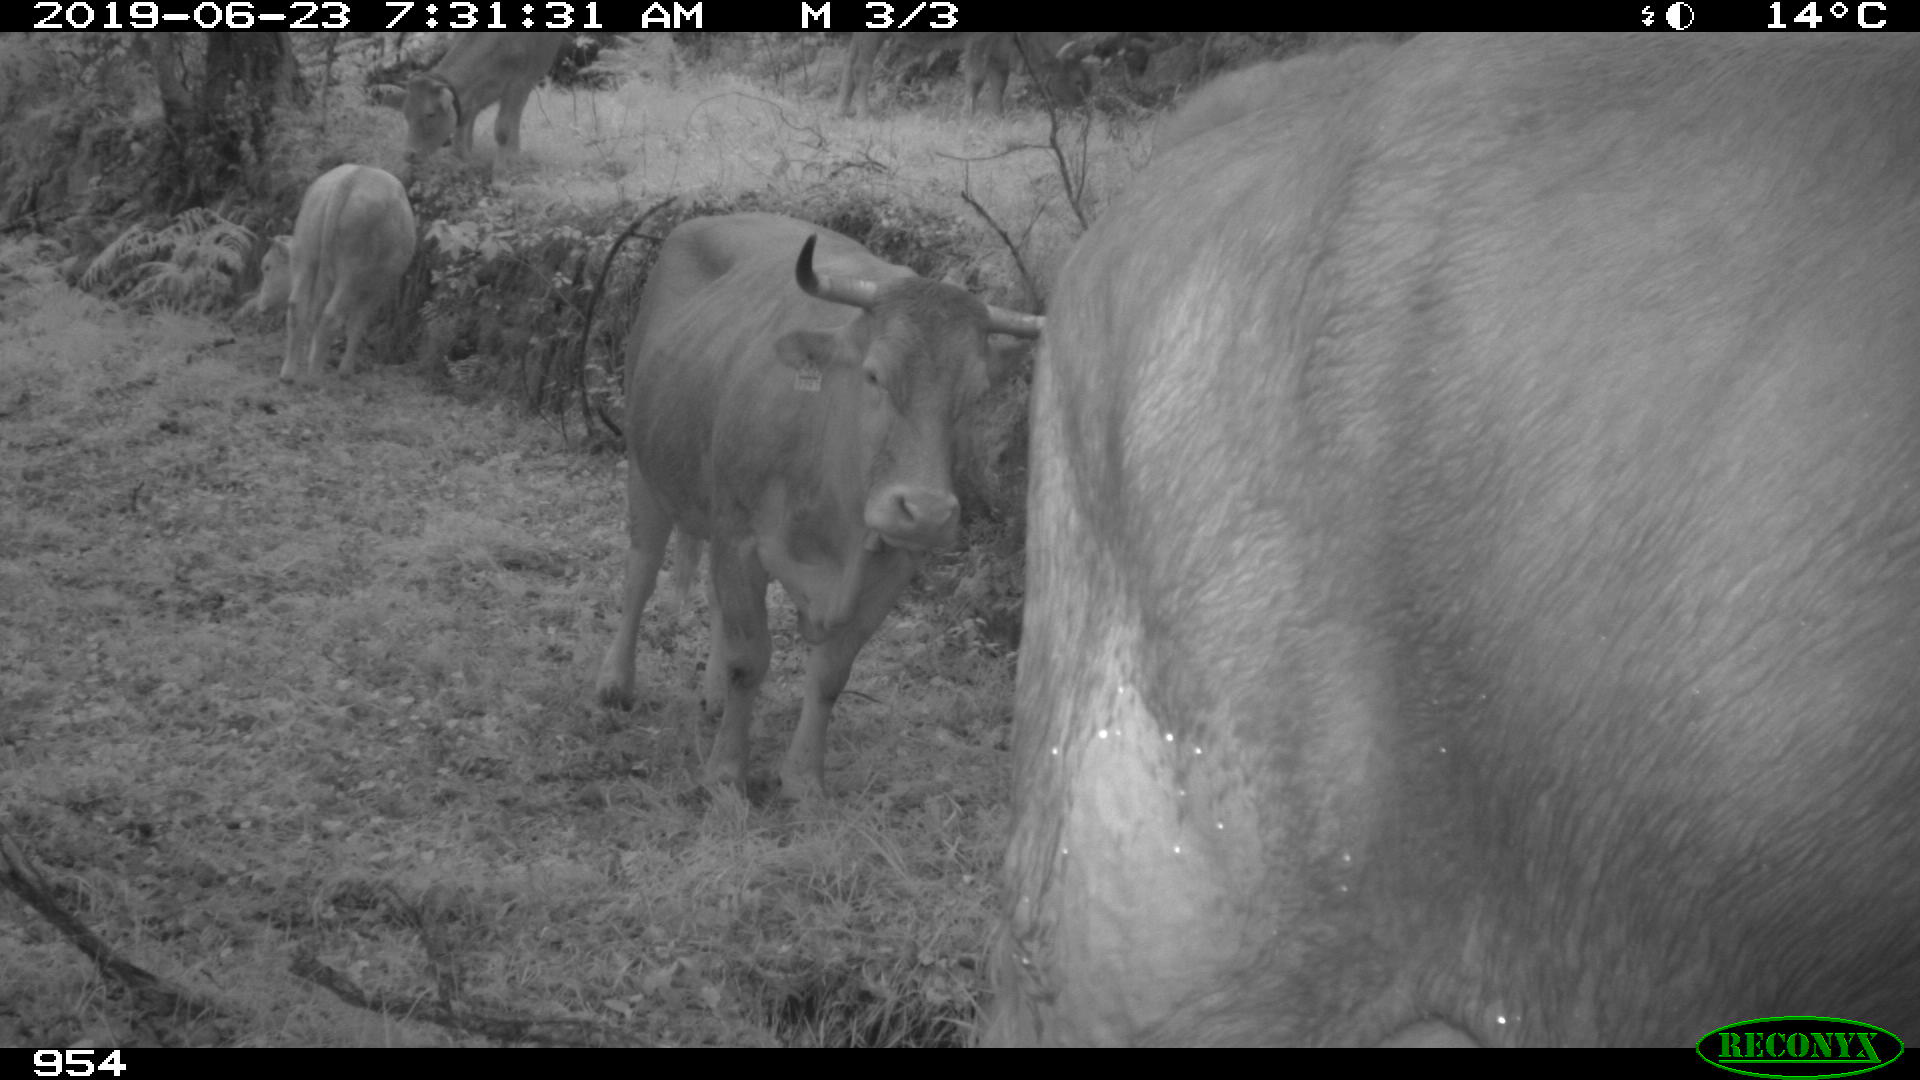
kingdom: Animalia
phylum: Chordata
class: Mammalia
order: Artiodactyla
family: Bovidae
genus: Bos
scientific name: Bos taurus
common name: Domesticated cattle
